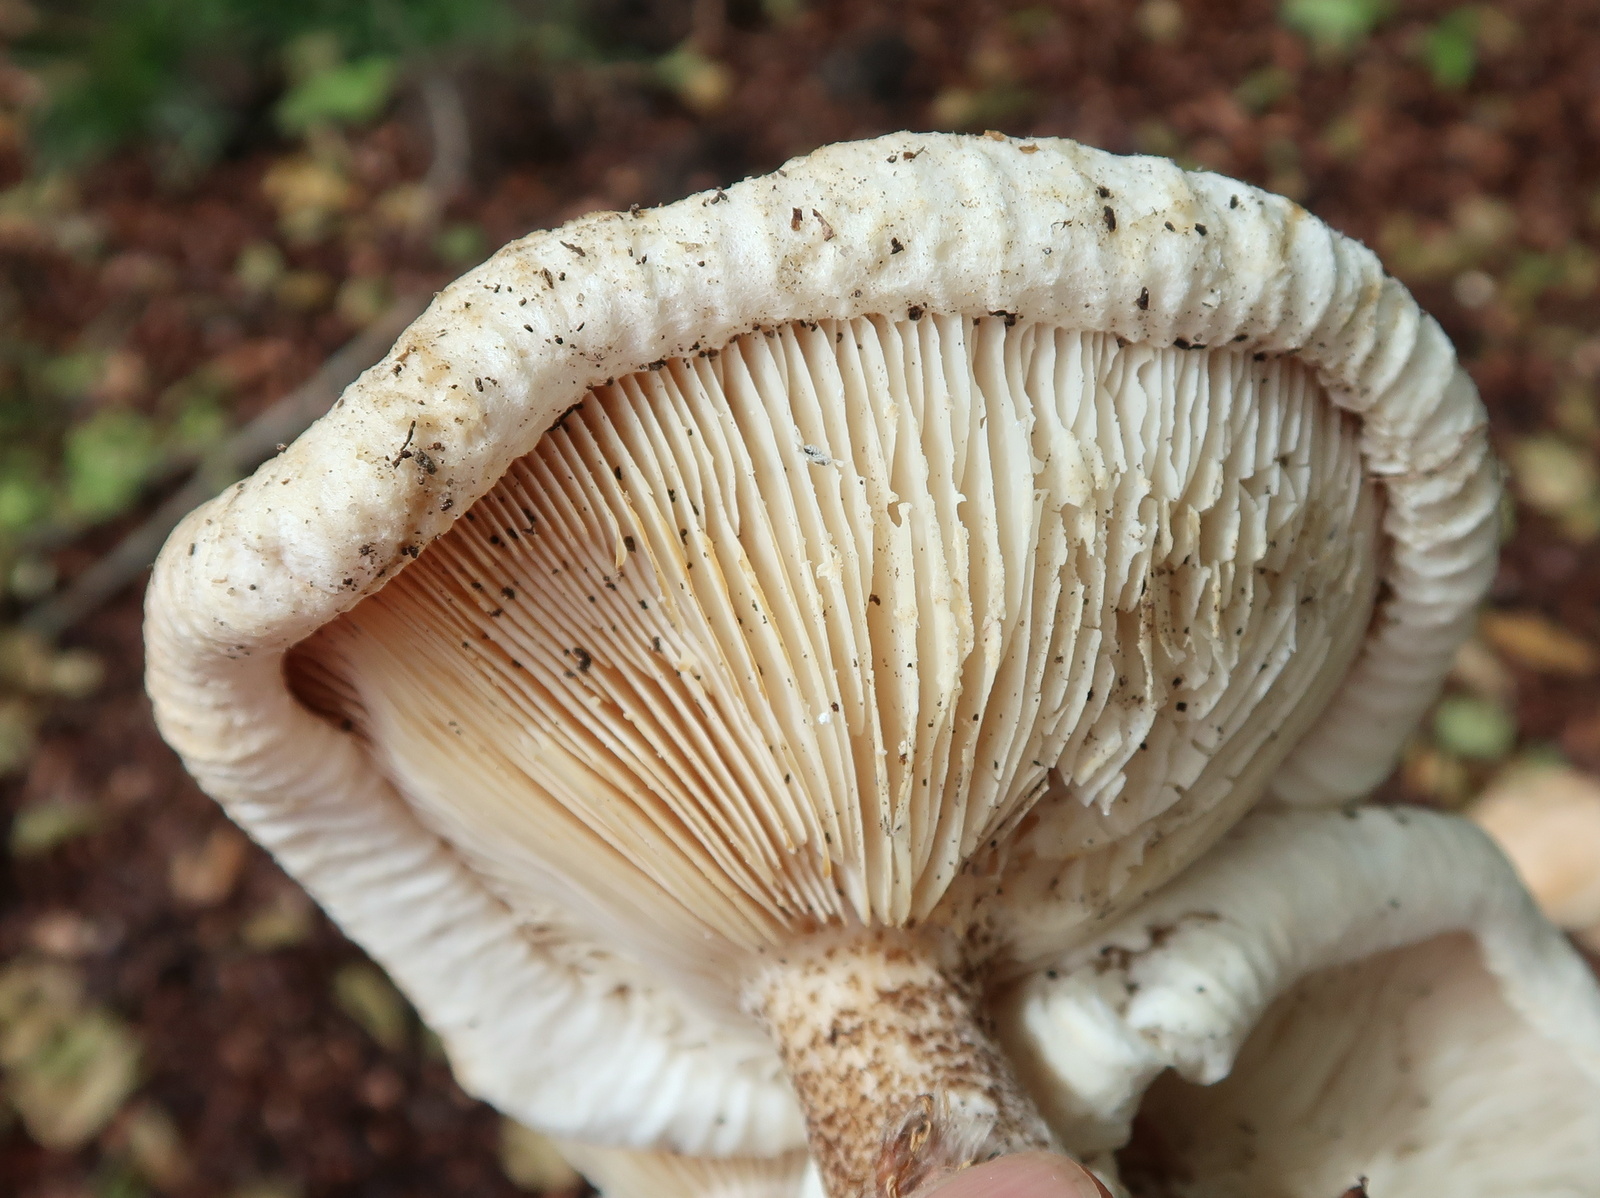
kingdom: Fungi
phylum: Basidiomycota
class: Agaricomycetes
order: Agaricales
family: Tricholomataceae
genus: Melanoleuca
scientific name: Melanoleuca verrucipes
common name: rufodet munkehat
